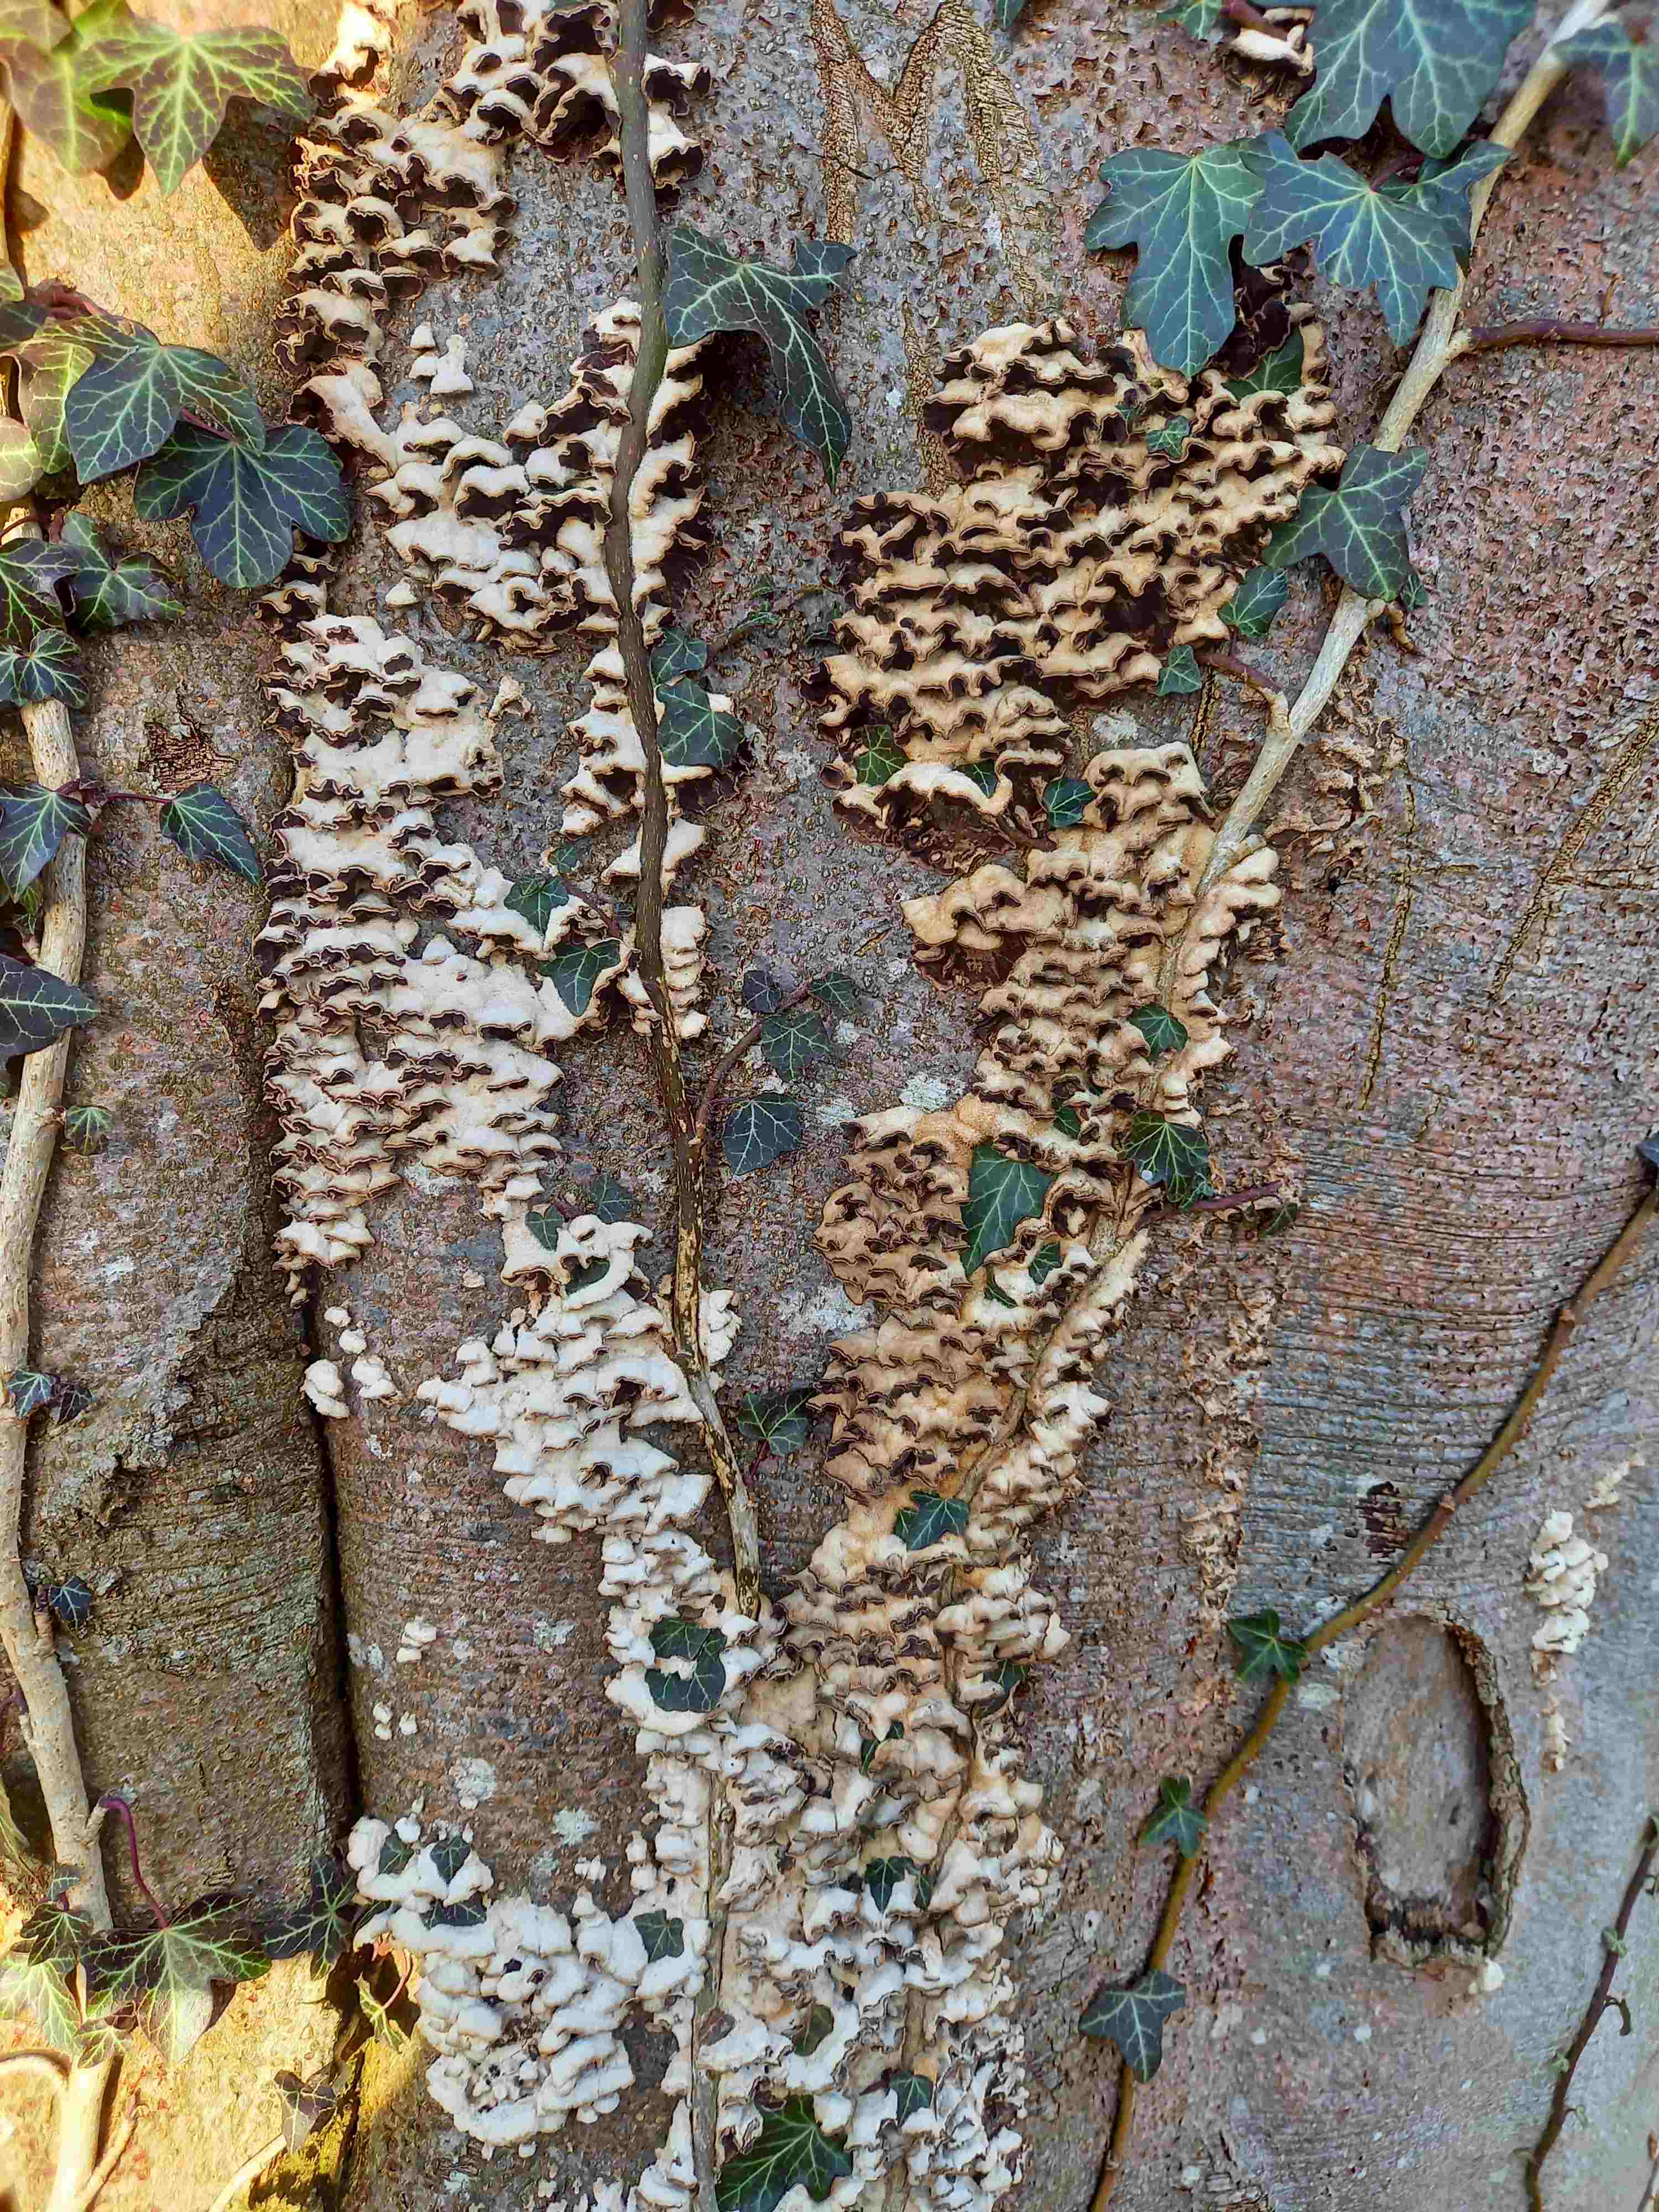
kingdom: Fungi
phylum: Basidiomycota
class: Agaricomycetes
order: Agaricales
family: Cyphellaceae
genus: Chondrostereum
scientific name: Chondrostereum purpureum
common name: purpurlædersvamp
